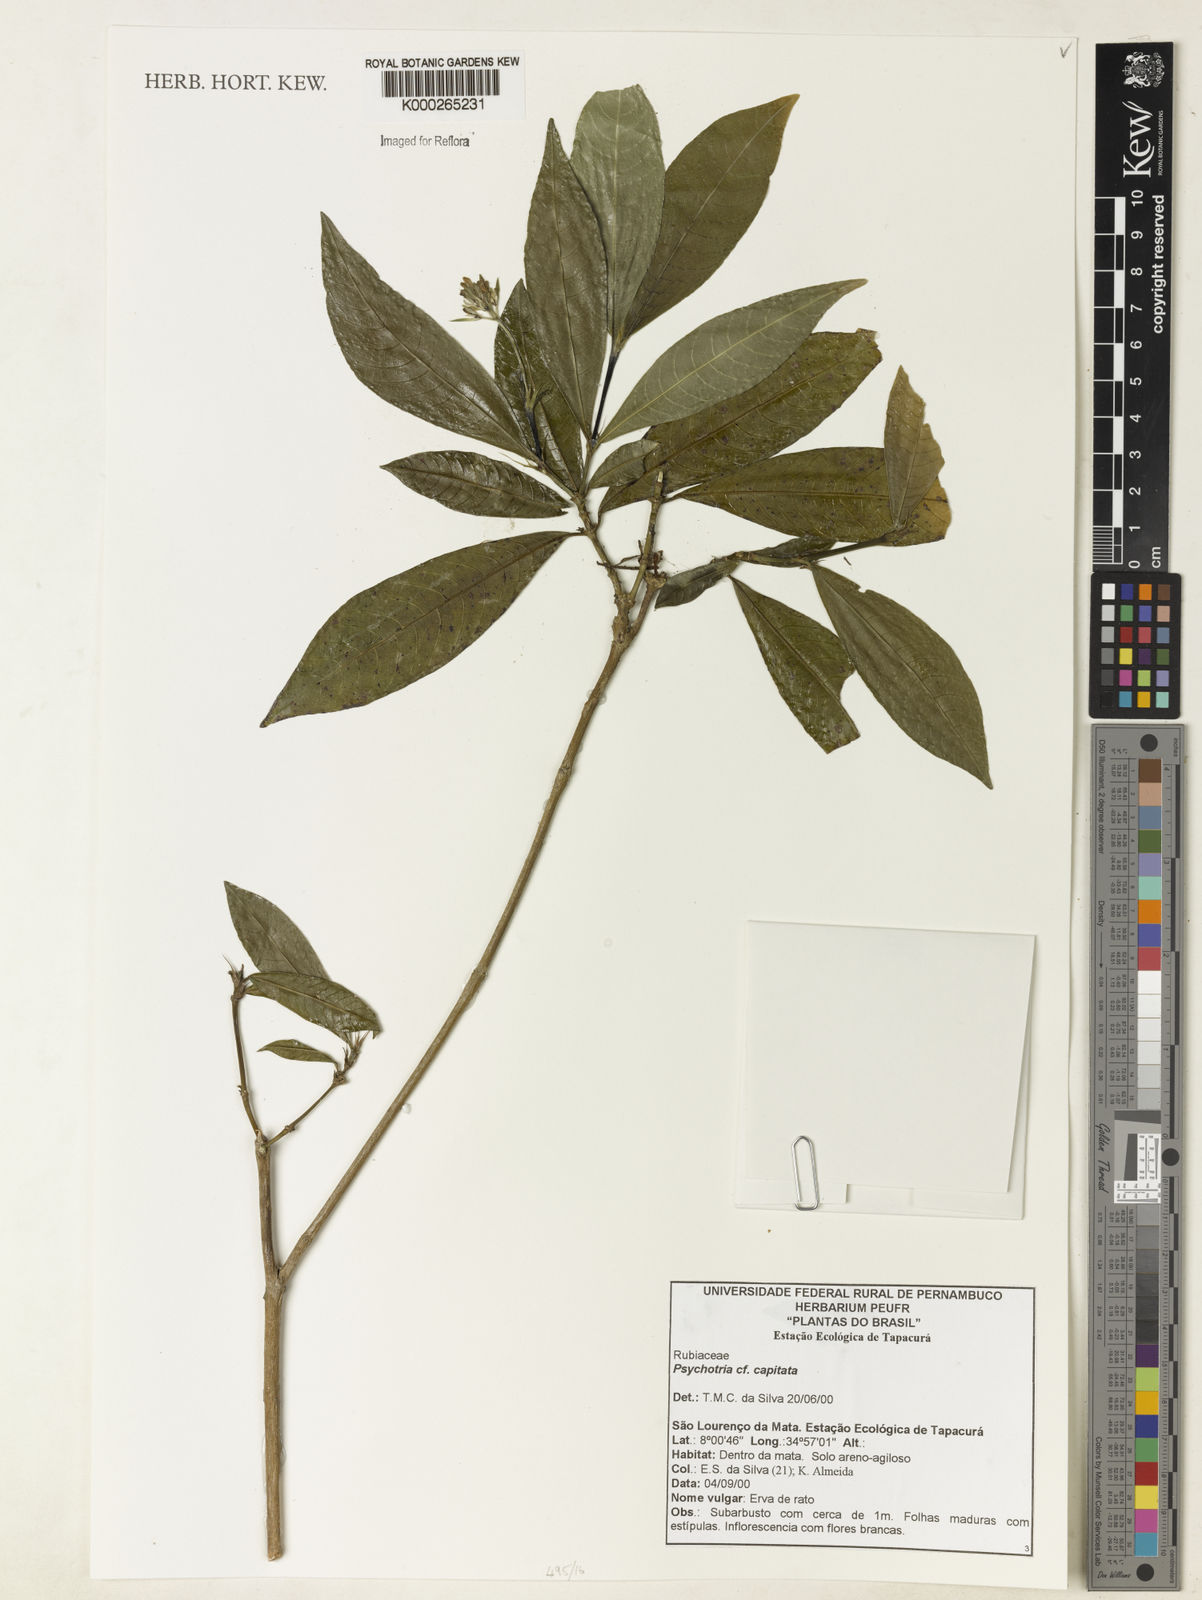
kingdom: Plantae
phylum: Tracheophyta
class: Magnoliopsida
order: Gentianales
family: Rubiaceae
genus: Psychotria
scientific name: Psychotria
